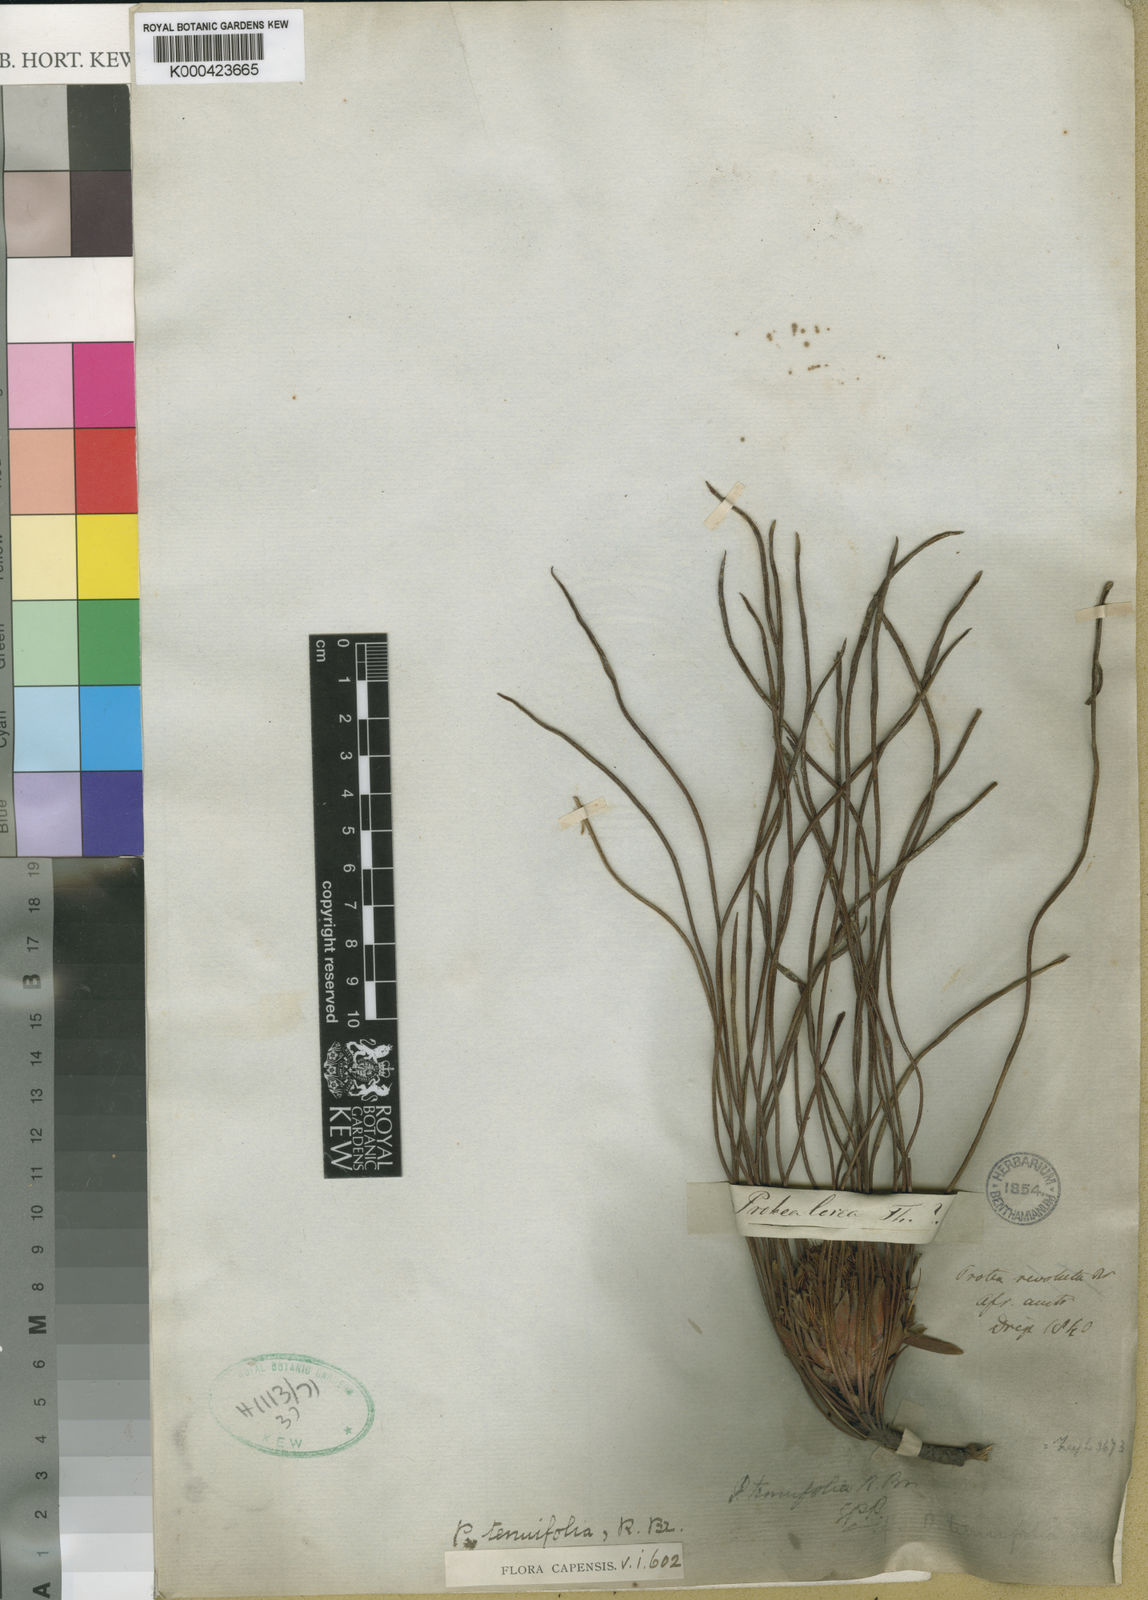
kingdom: Plantae
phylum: Tracheophyta
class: Magnoliopsida
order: Proteales
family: Proteaceae
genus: Protea
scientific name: Protea scabra
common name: Sandpaper-leaf sugarbush
